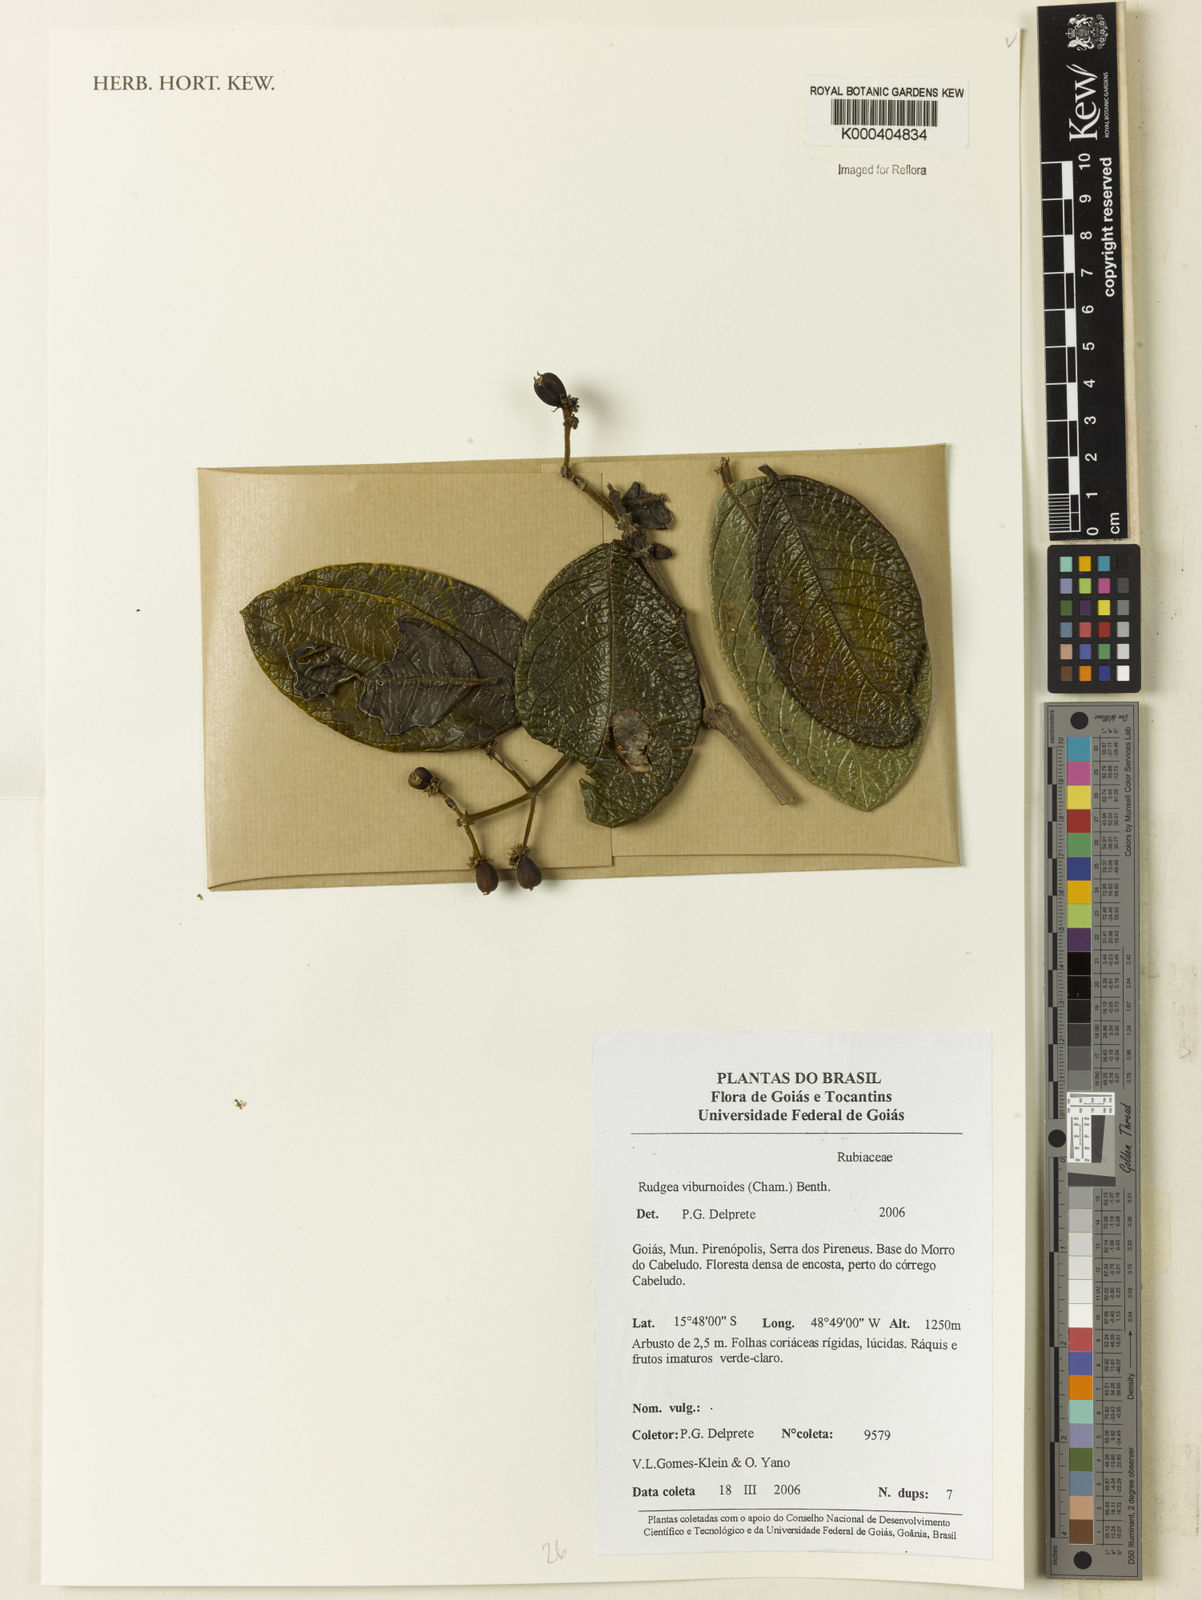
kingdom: Plantae
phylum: Tracheophyta
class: Magnoliopsida
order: Gentianales
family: Rubiaceae
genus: Rudgea
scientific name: Rudgea viburnoides
